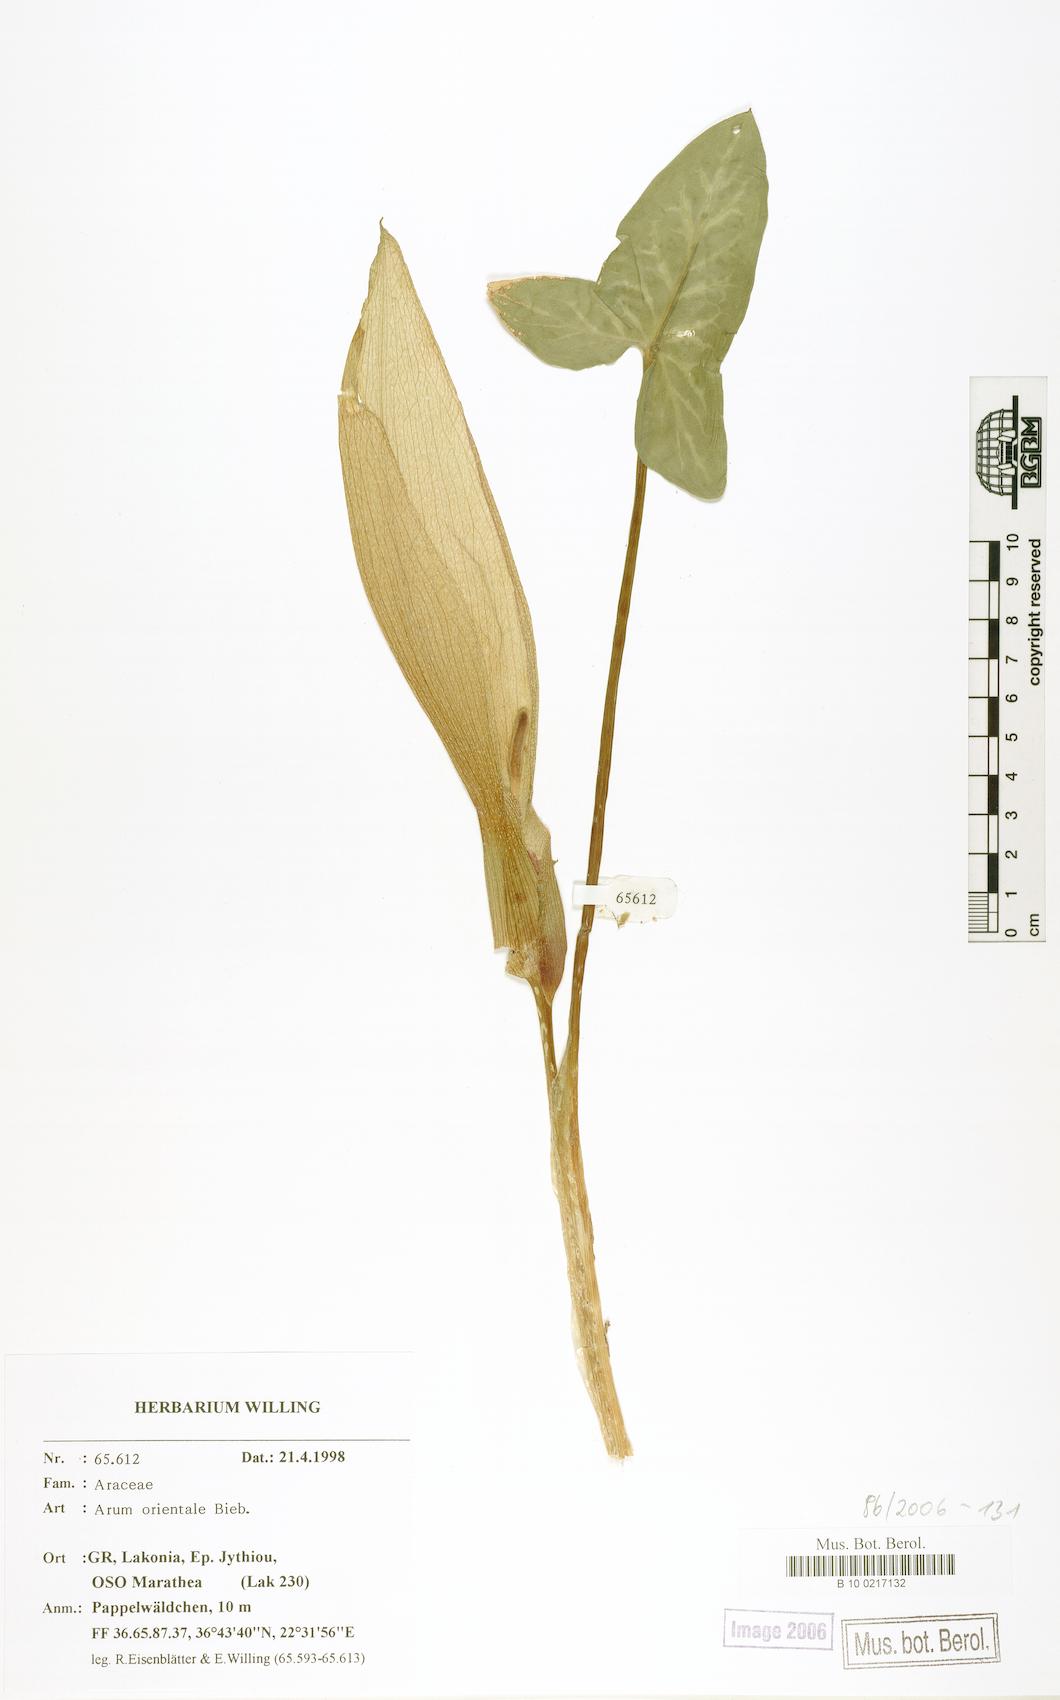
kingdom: Plantae
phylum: Tracheophyta
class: Liliopsida
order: Alismatales
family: Araceae
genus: Arum
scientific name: Arum orientale
